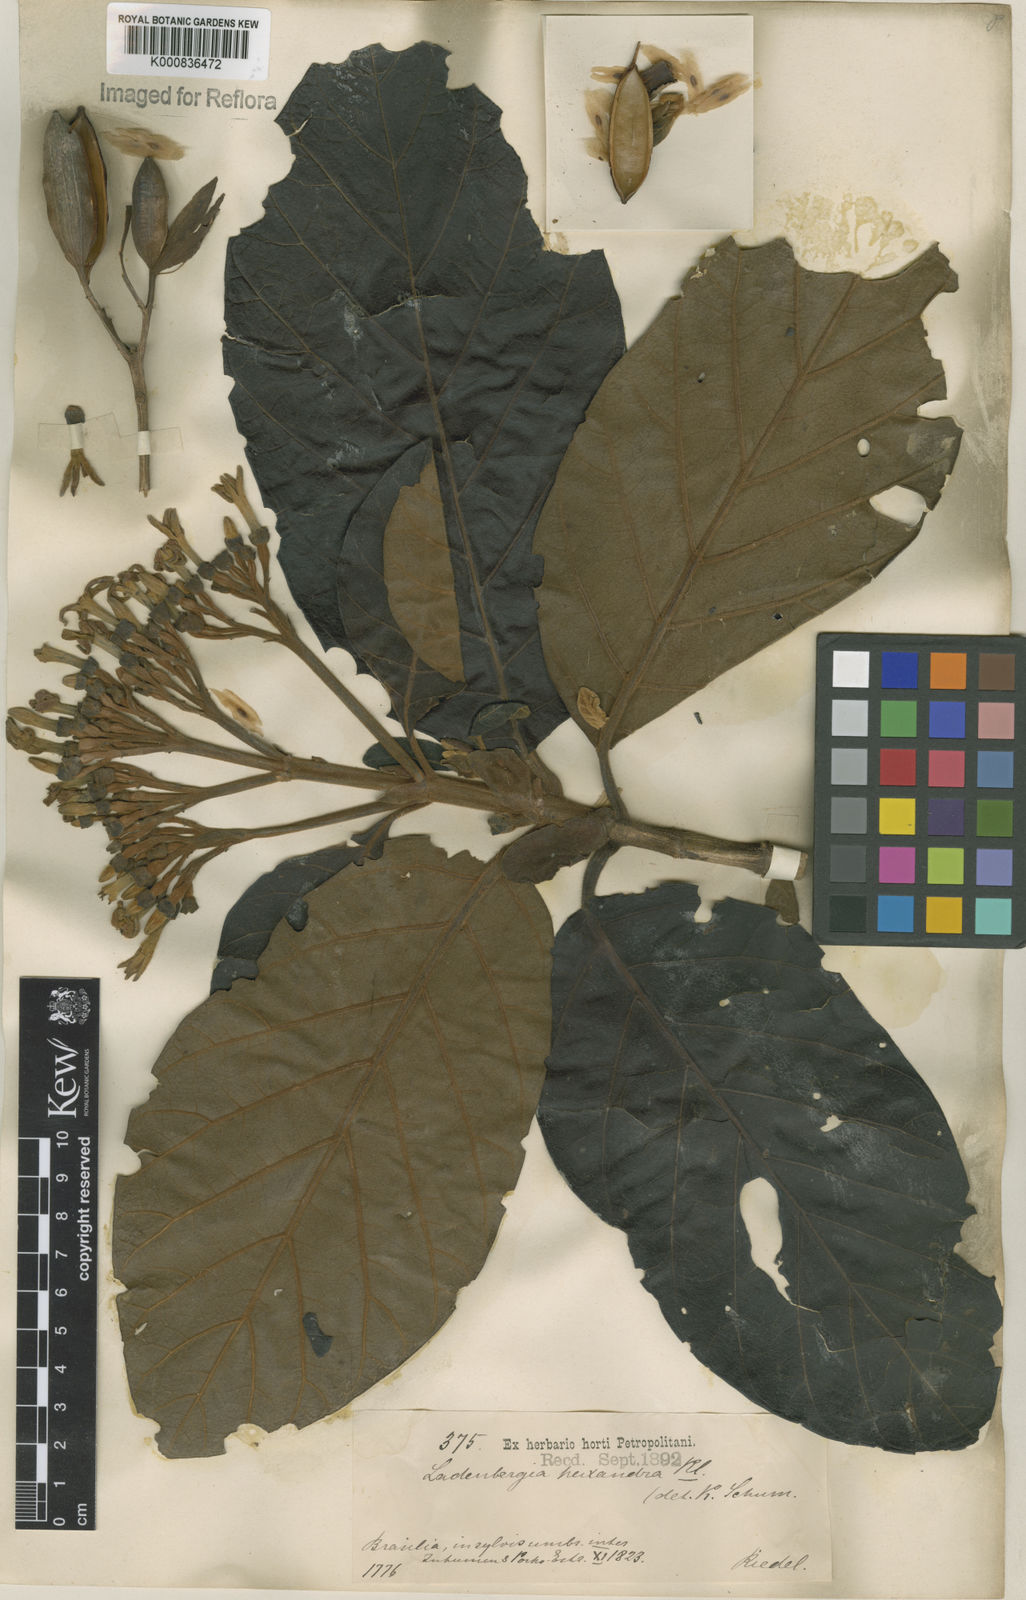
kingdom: Plantae
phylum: Tracheophyta
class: Magnoliopsida
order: Gentianales
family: Rubiaceae
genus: Ladenbergia
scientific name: Ladenbergia hexandra
